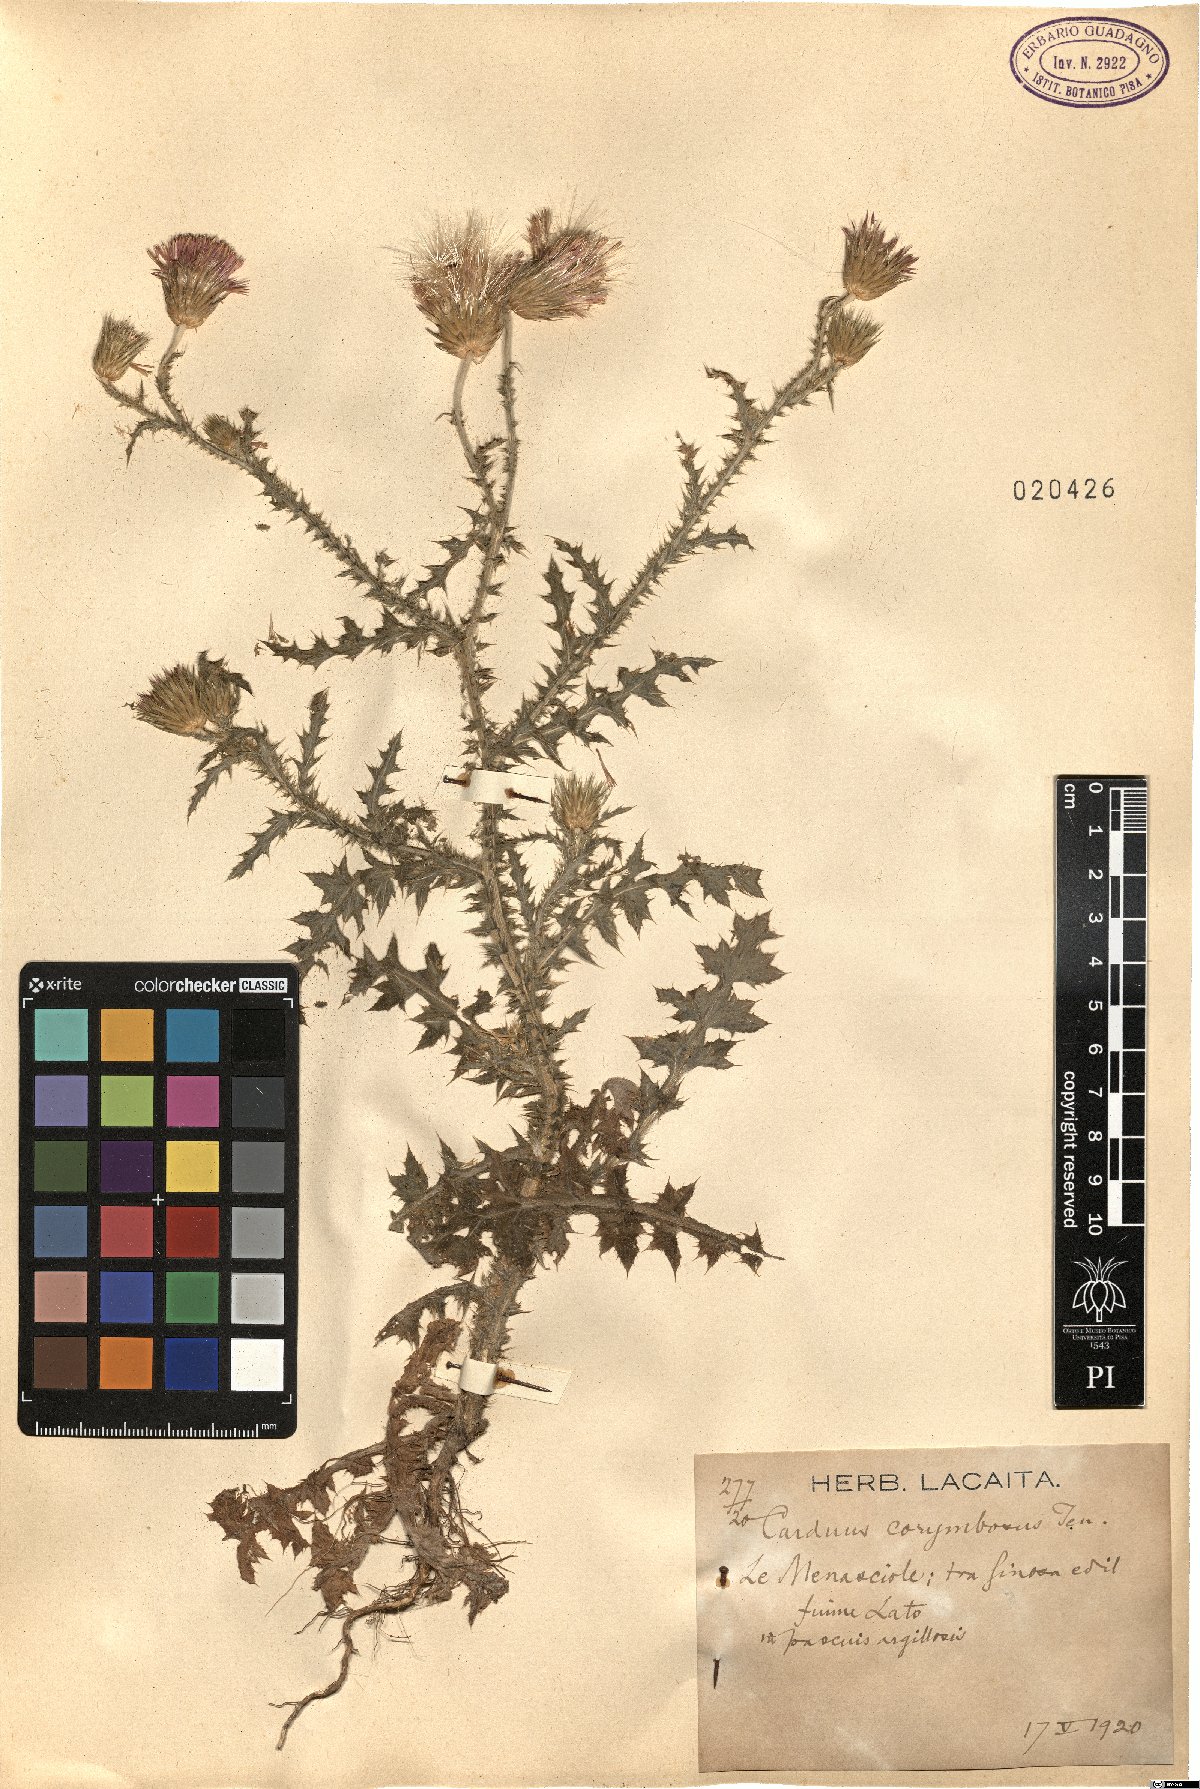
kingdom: Plantae
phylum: Tracheophyta
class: Magnoliopsida
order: Asterales
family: Asteraceae
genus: Carduus
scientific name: Carduus corymbosus
